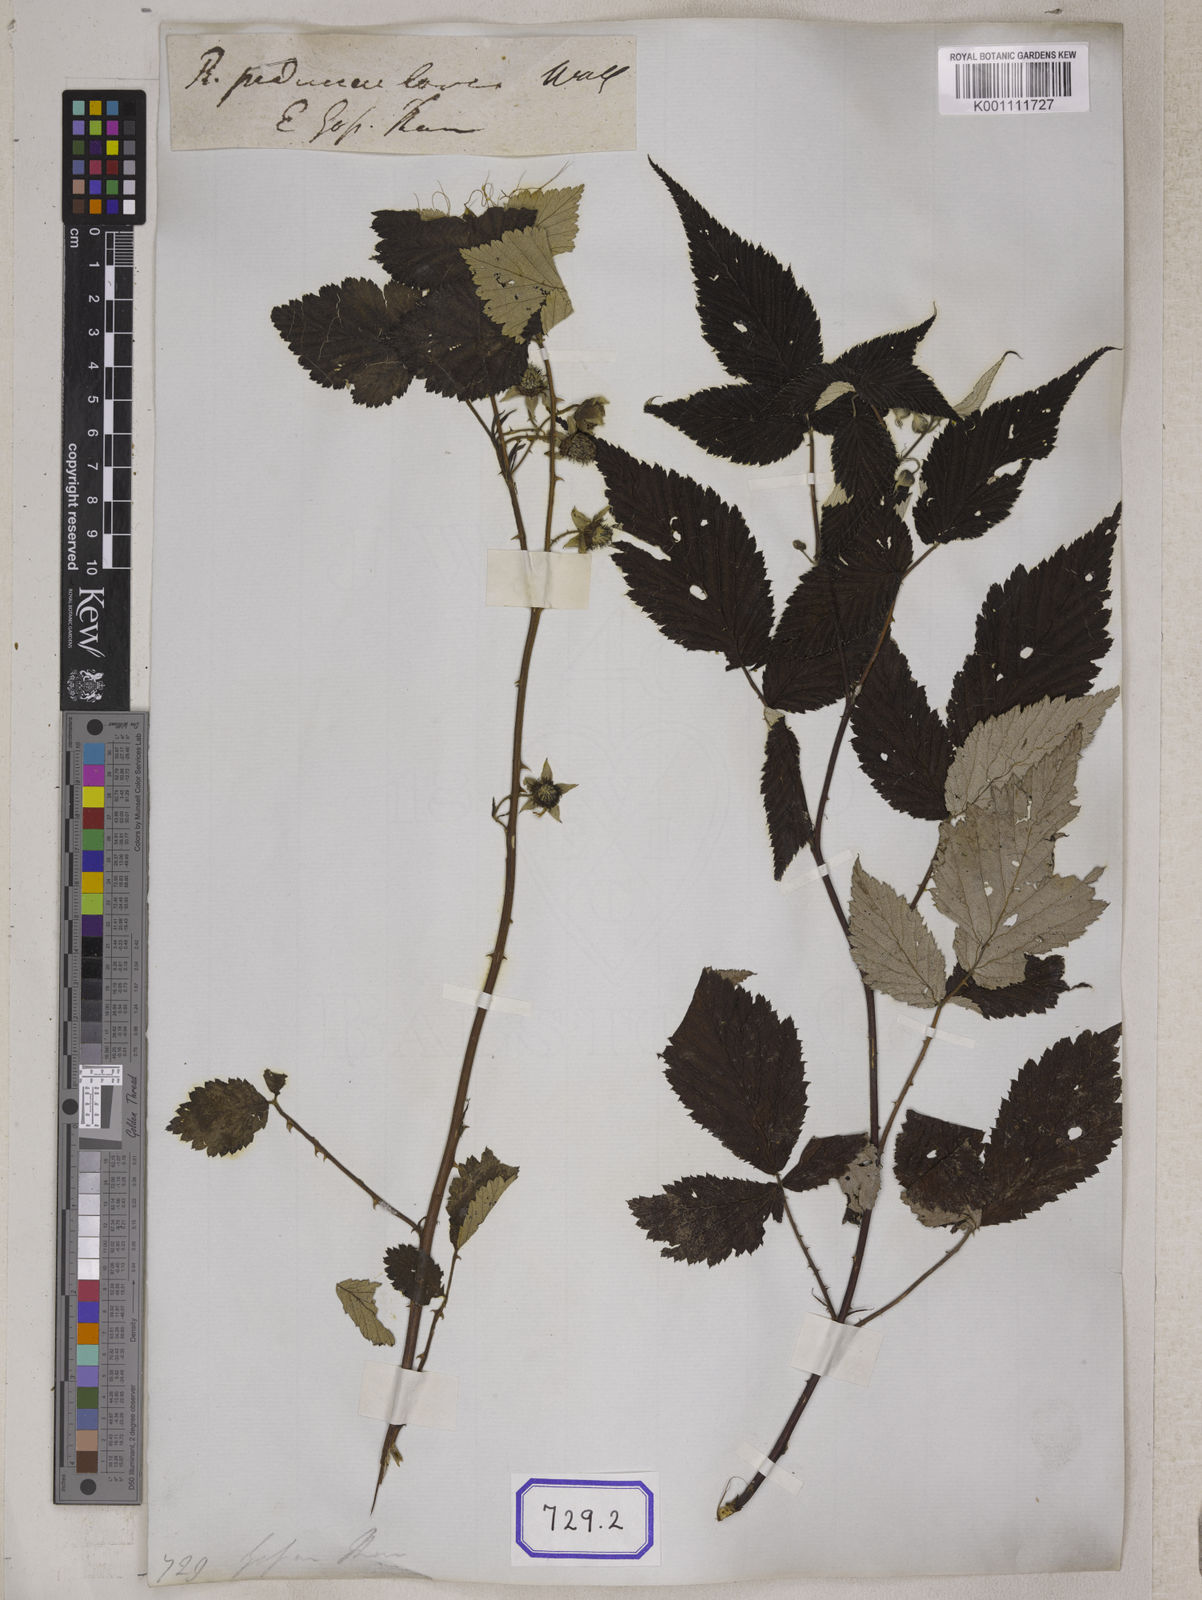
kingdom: Plantae
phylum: Tracheophyta
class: Magnoliopsida
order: Rosales
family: Rosaceae
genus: Rubus
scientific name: Rubus pedunculosus
